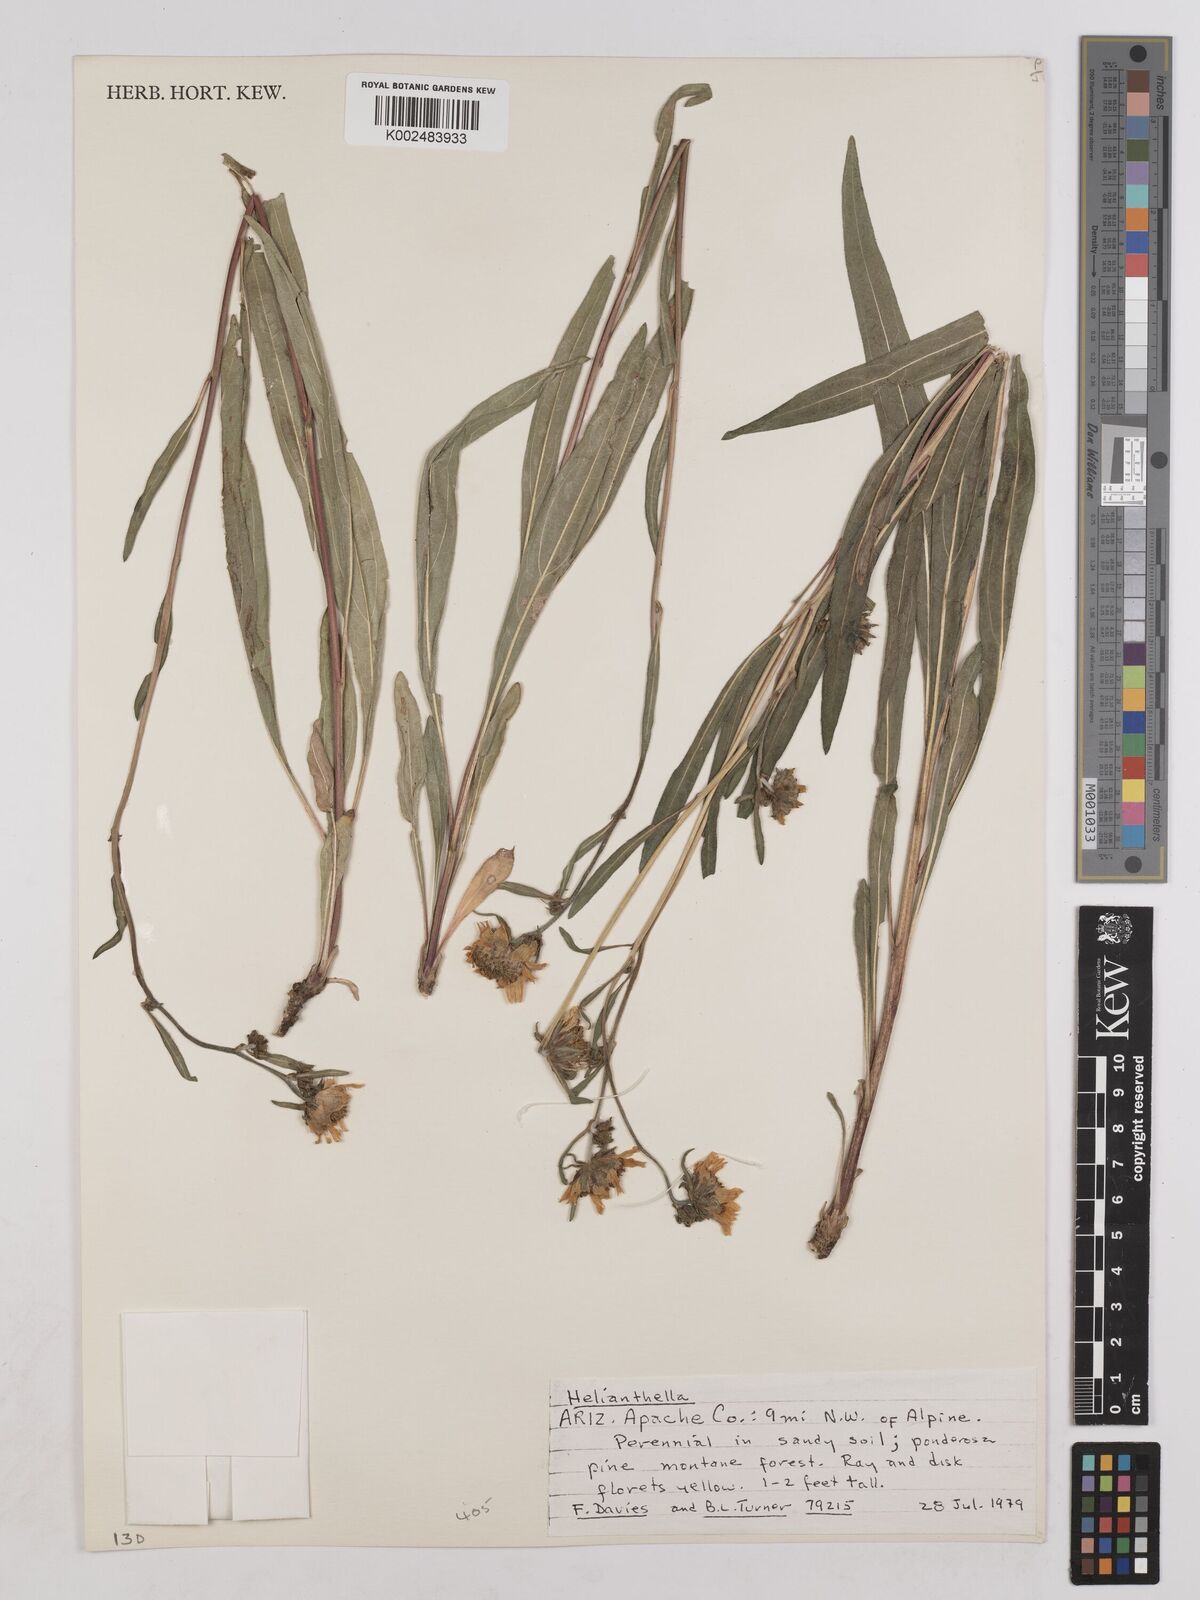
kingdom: Plantae
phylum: Tracheophyta
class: Magnoliopsida
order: Asterales
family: Asteraceae
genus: Helianthella
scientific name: Helianthella
